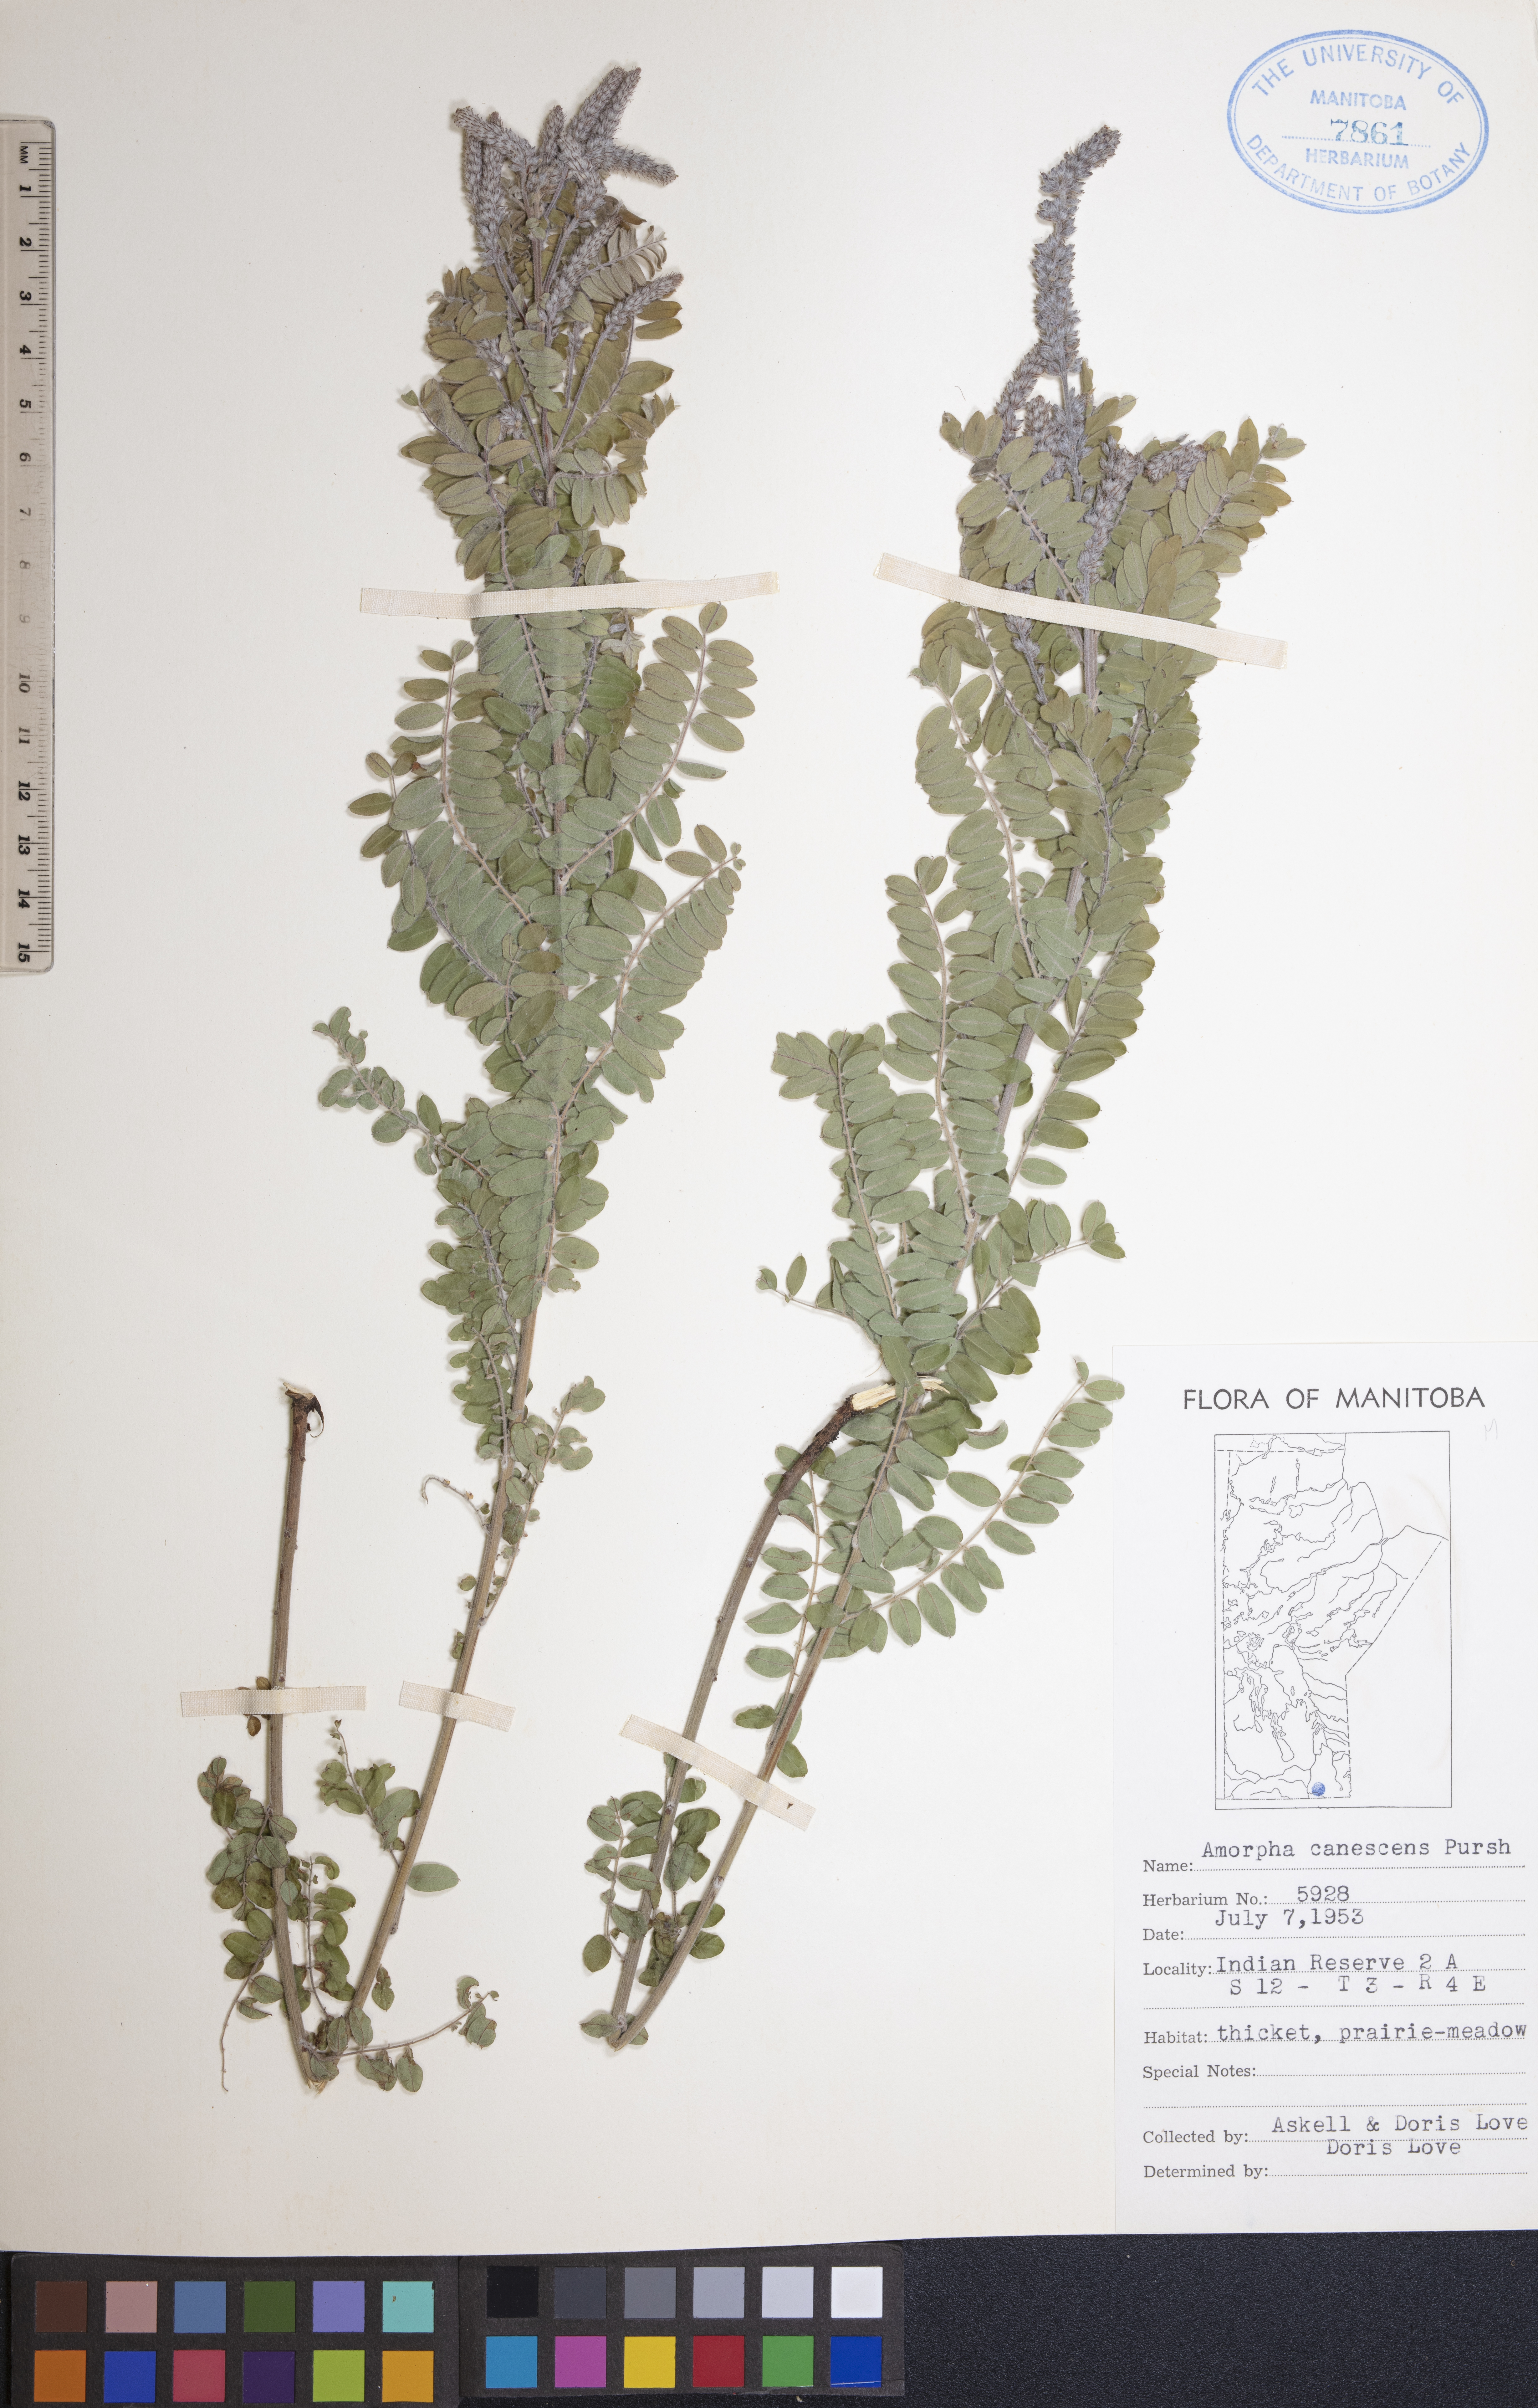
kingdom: Plantae
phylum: Tracheophyta
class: Magnoliopsida
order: Fabales
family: Fabaceae
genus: Amorpha
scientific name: Amorpha canescens
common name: Leadplant
